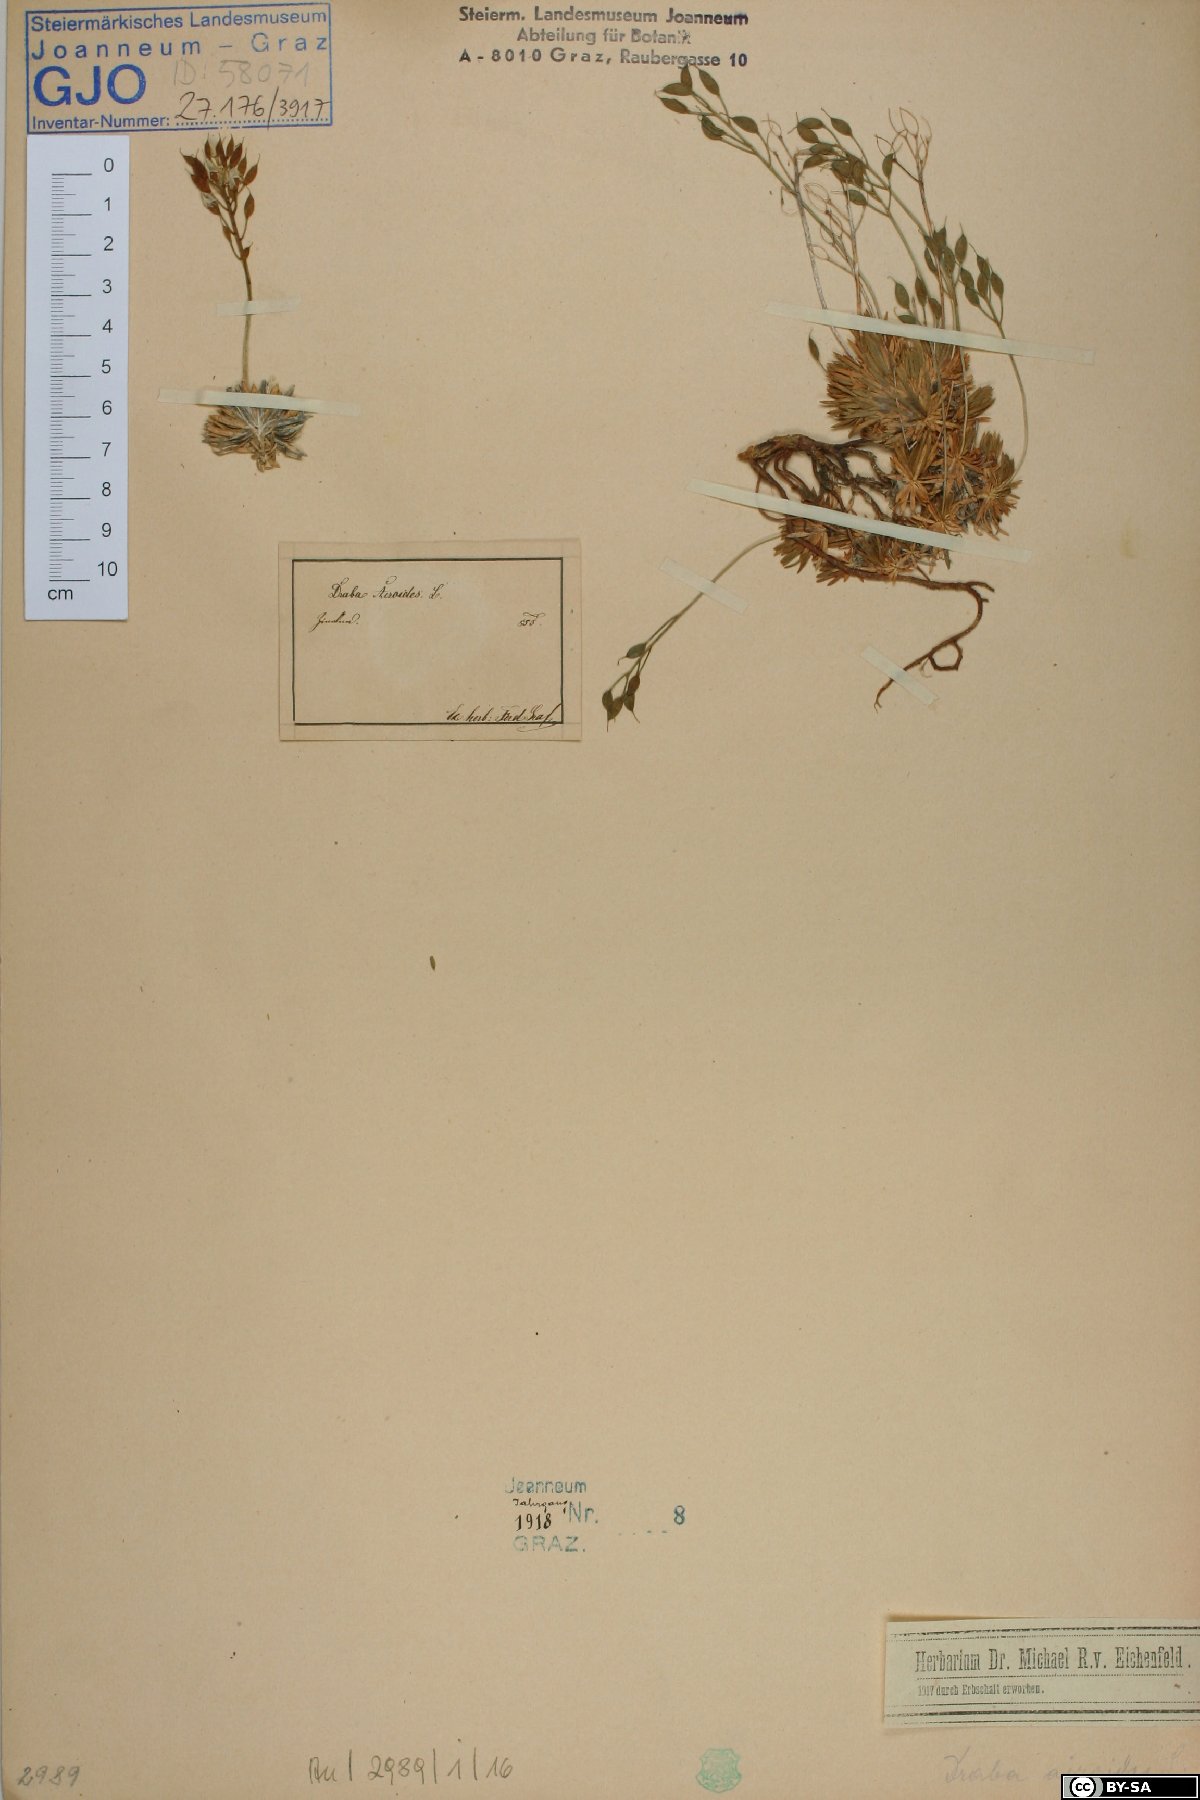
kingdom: Plantae
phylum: Tracheophyta
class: Magnoliopsida
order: Brassicales
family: Brassicaceae
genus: Draba
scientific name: Draba aizoides
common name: Yellow whitlowgrass
